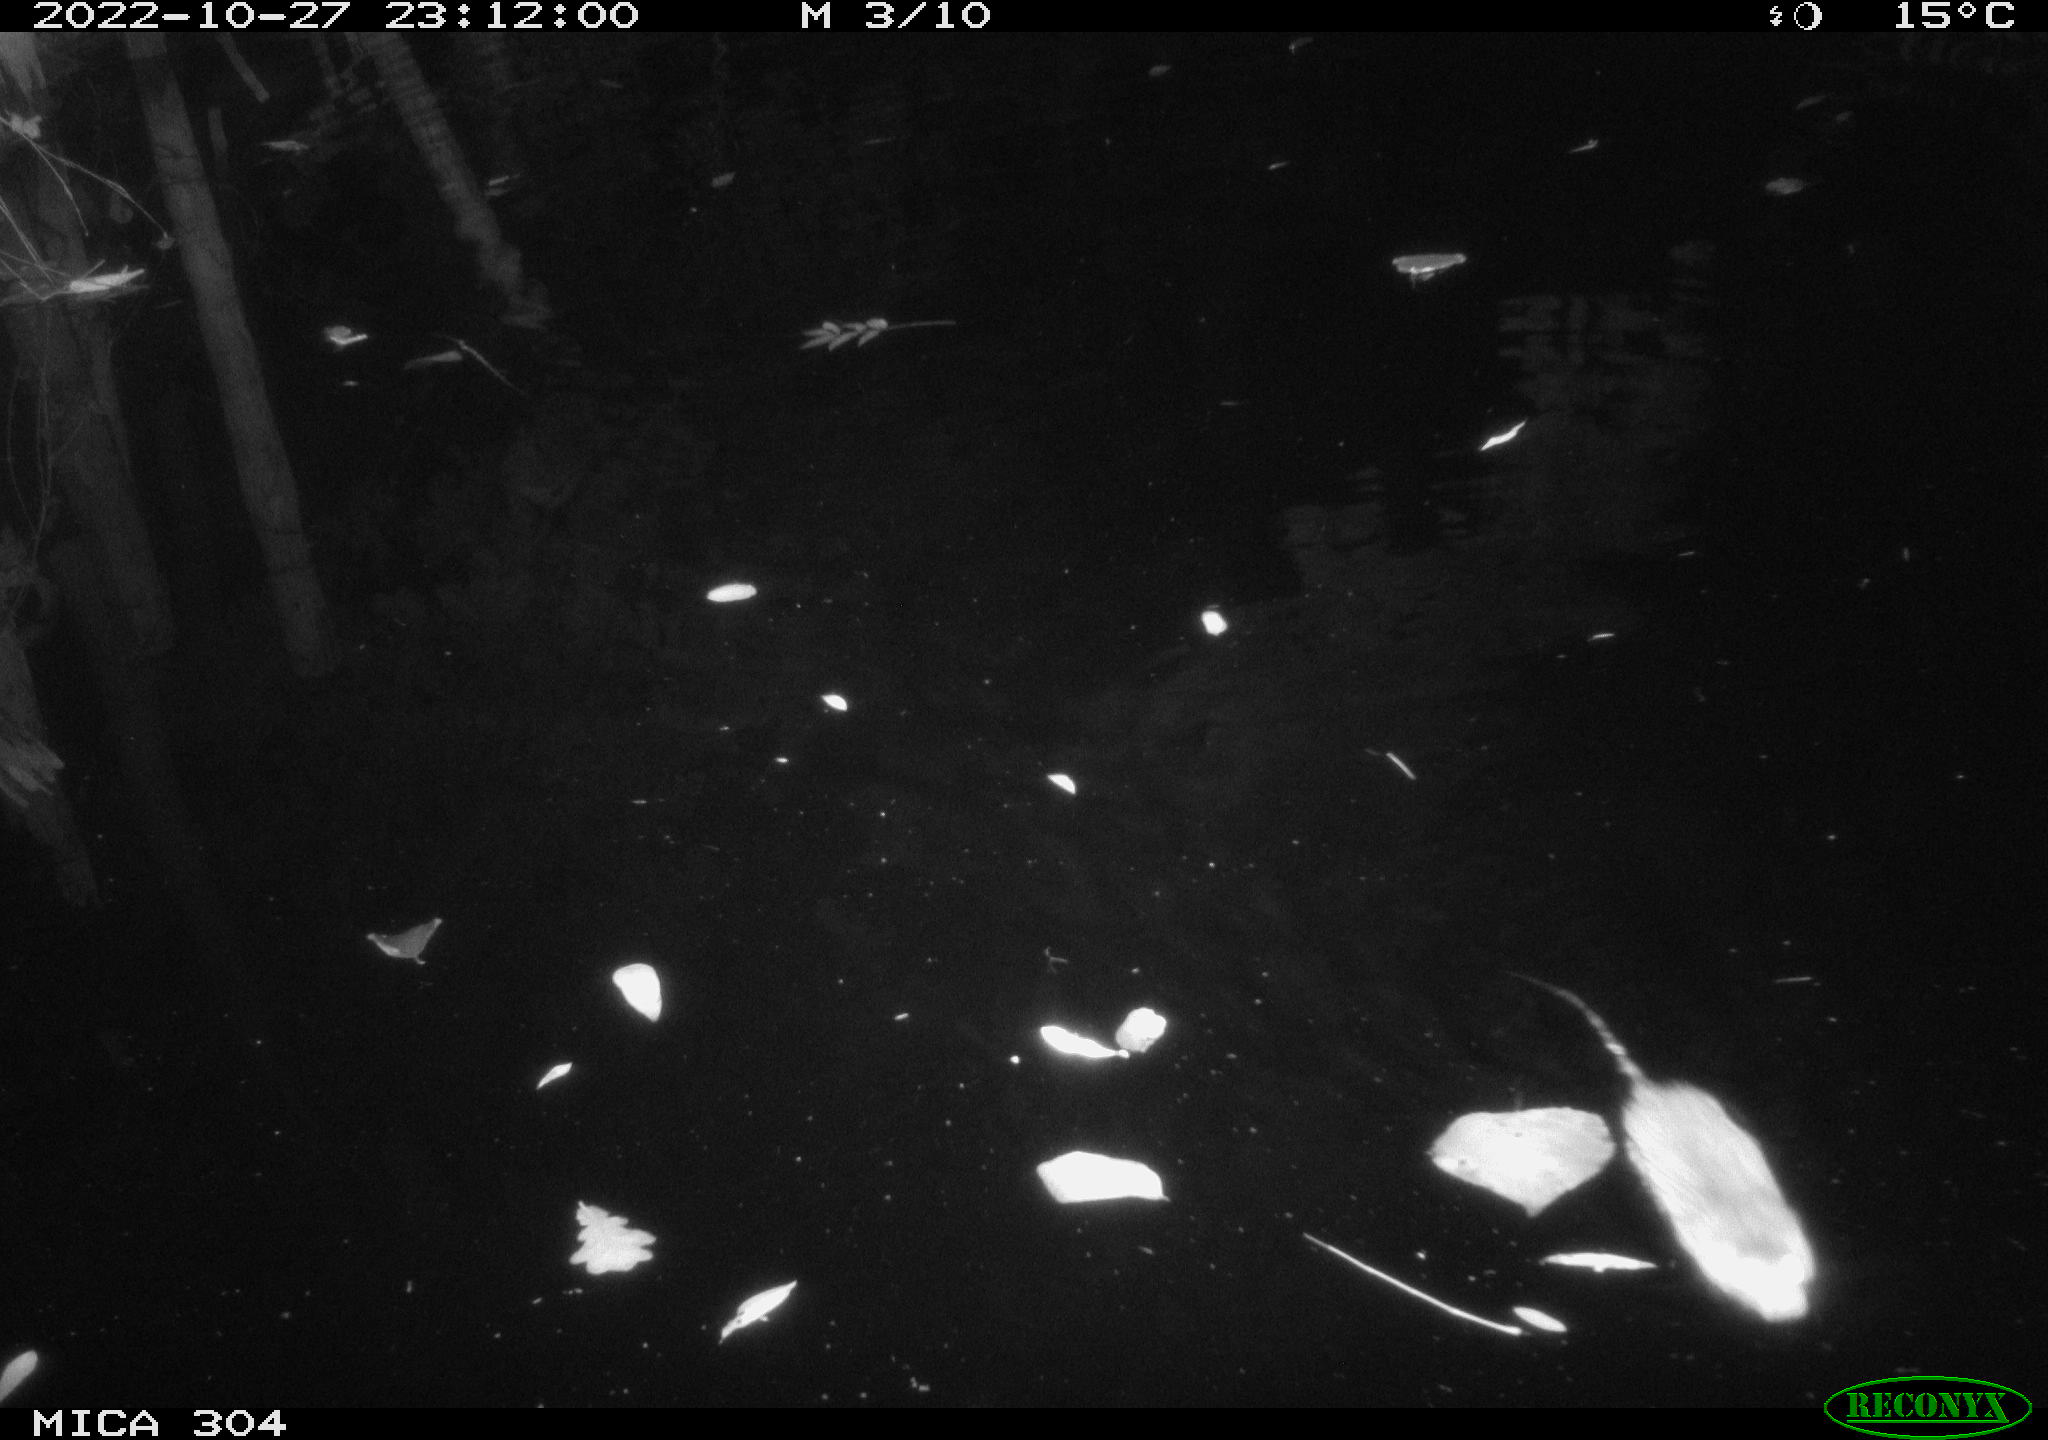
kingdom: Animalia
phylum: Chordata
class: Mammalia
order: Rodentia
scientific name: Rodentia
